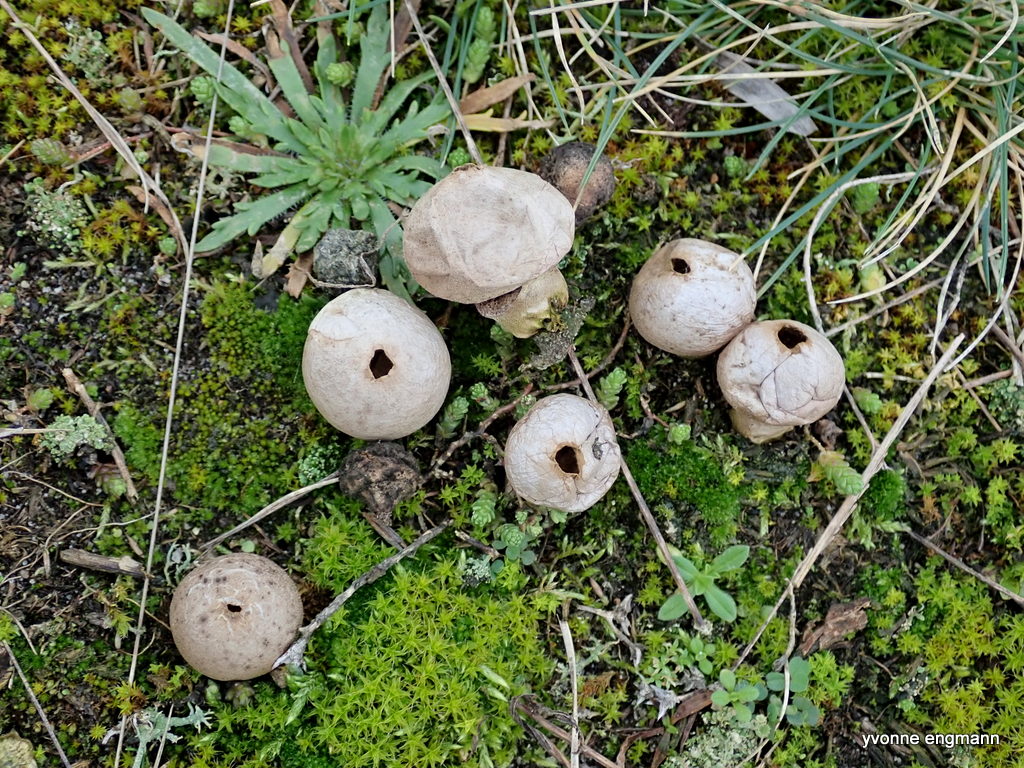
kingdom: Fungi
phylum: Basidiomycota
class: Agaricomycetes
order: Agaricales
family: Lycoperdaceae
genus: Lycoperdon
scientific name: Lycoperdon lividum
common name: mark-støvbold
